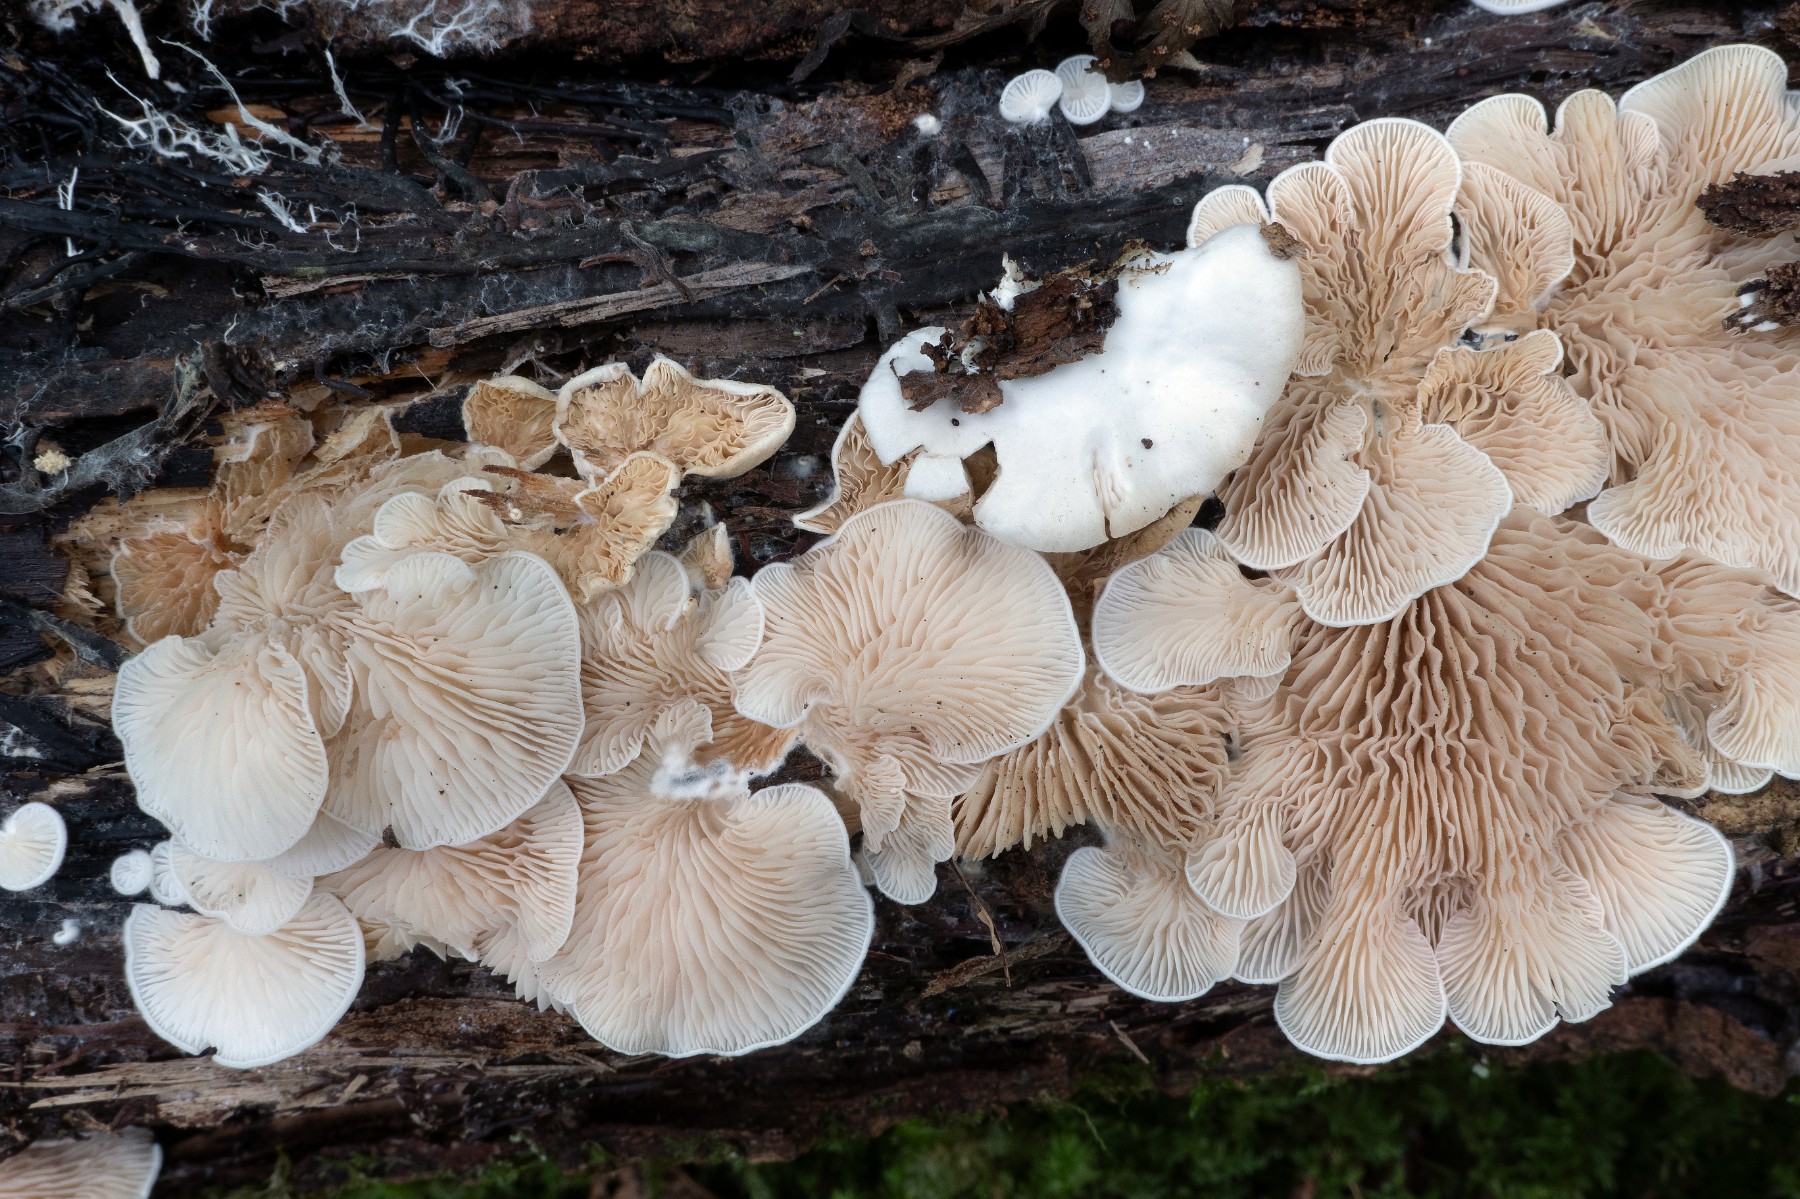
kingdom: Fungi
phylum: Basidiomycota
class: Agaricomycetes
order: Agaricales
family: Entolomataceae
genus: Clitopilus
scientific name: Clitopilus hobsonii
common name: Miller's oysterling
